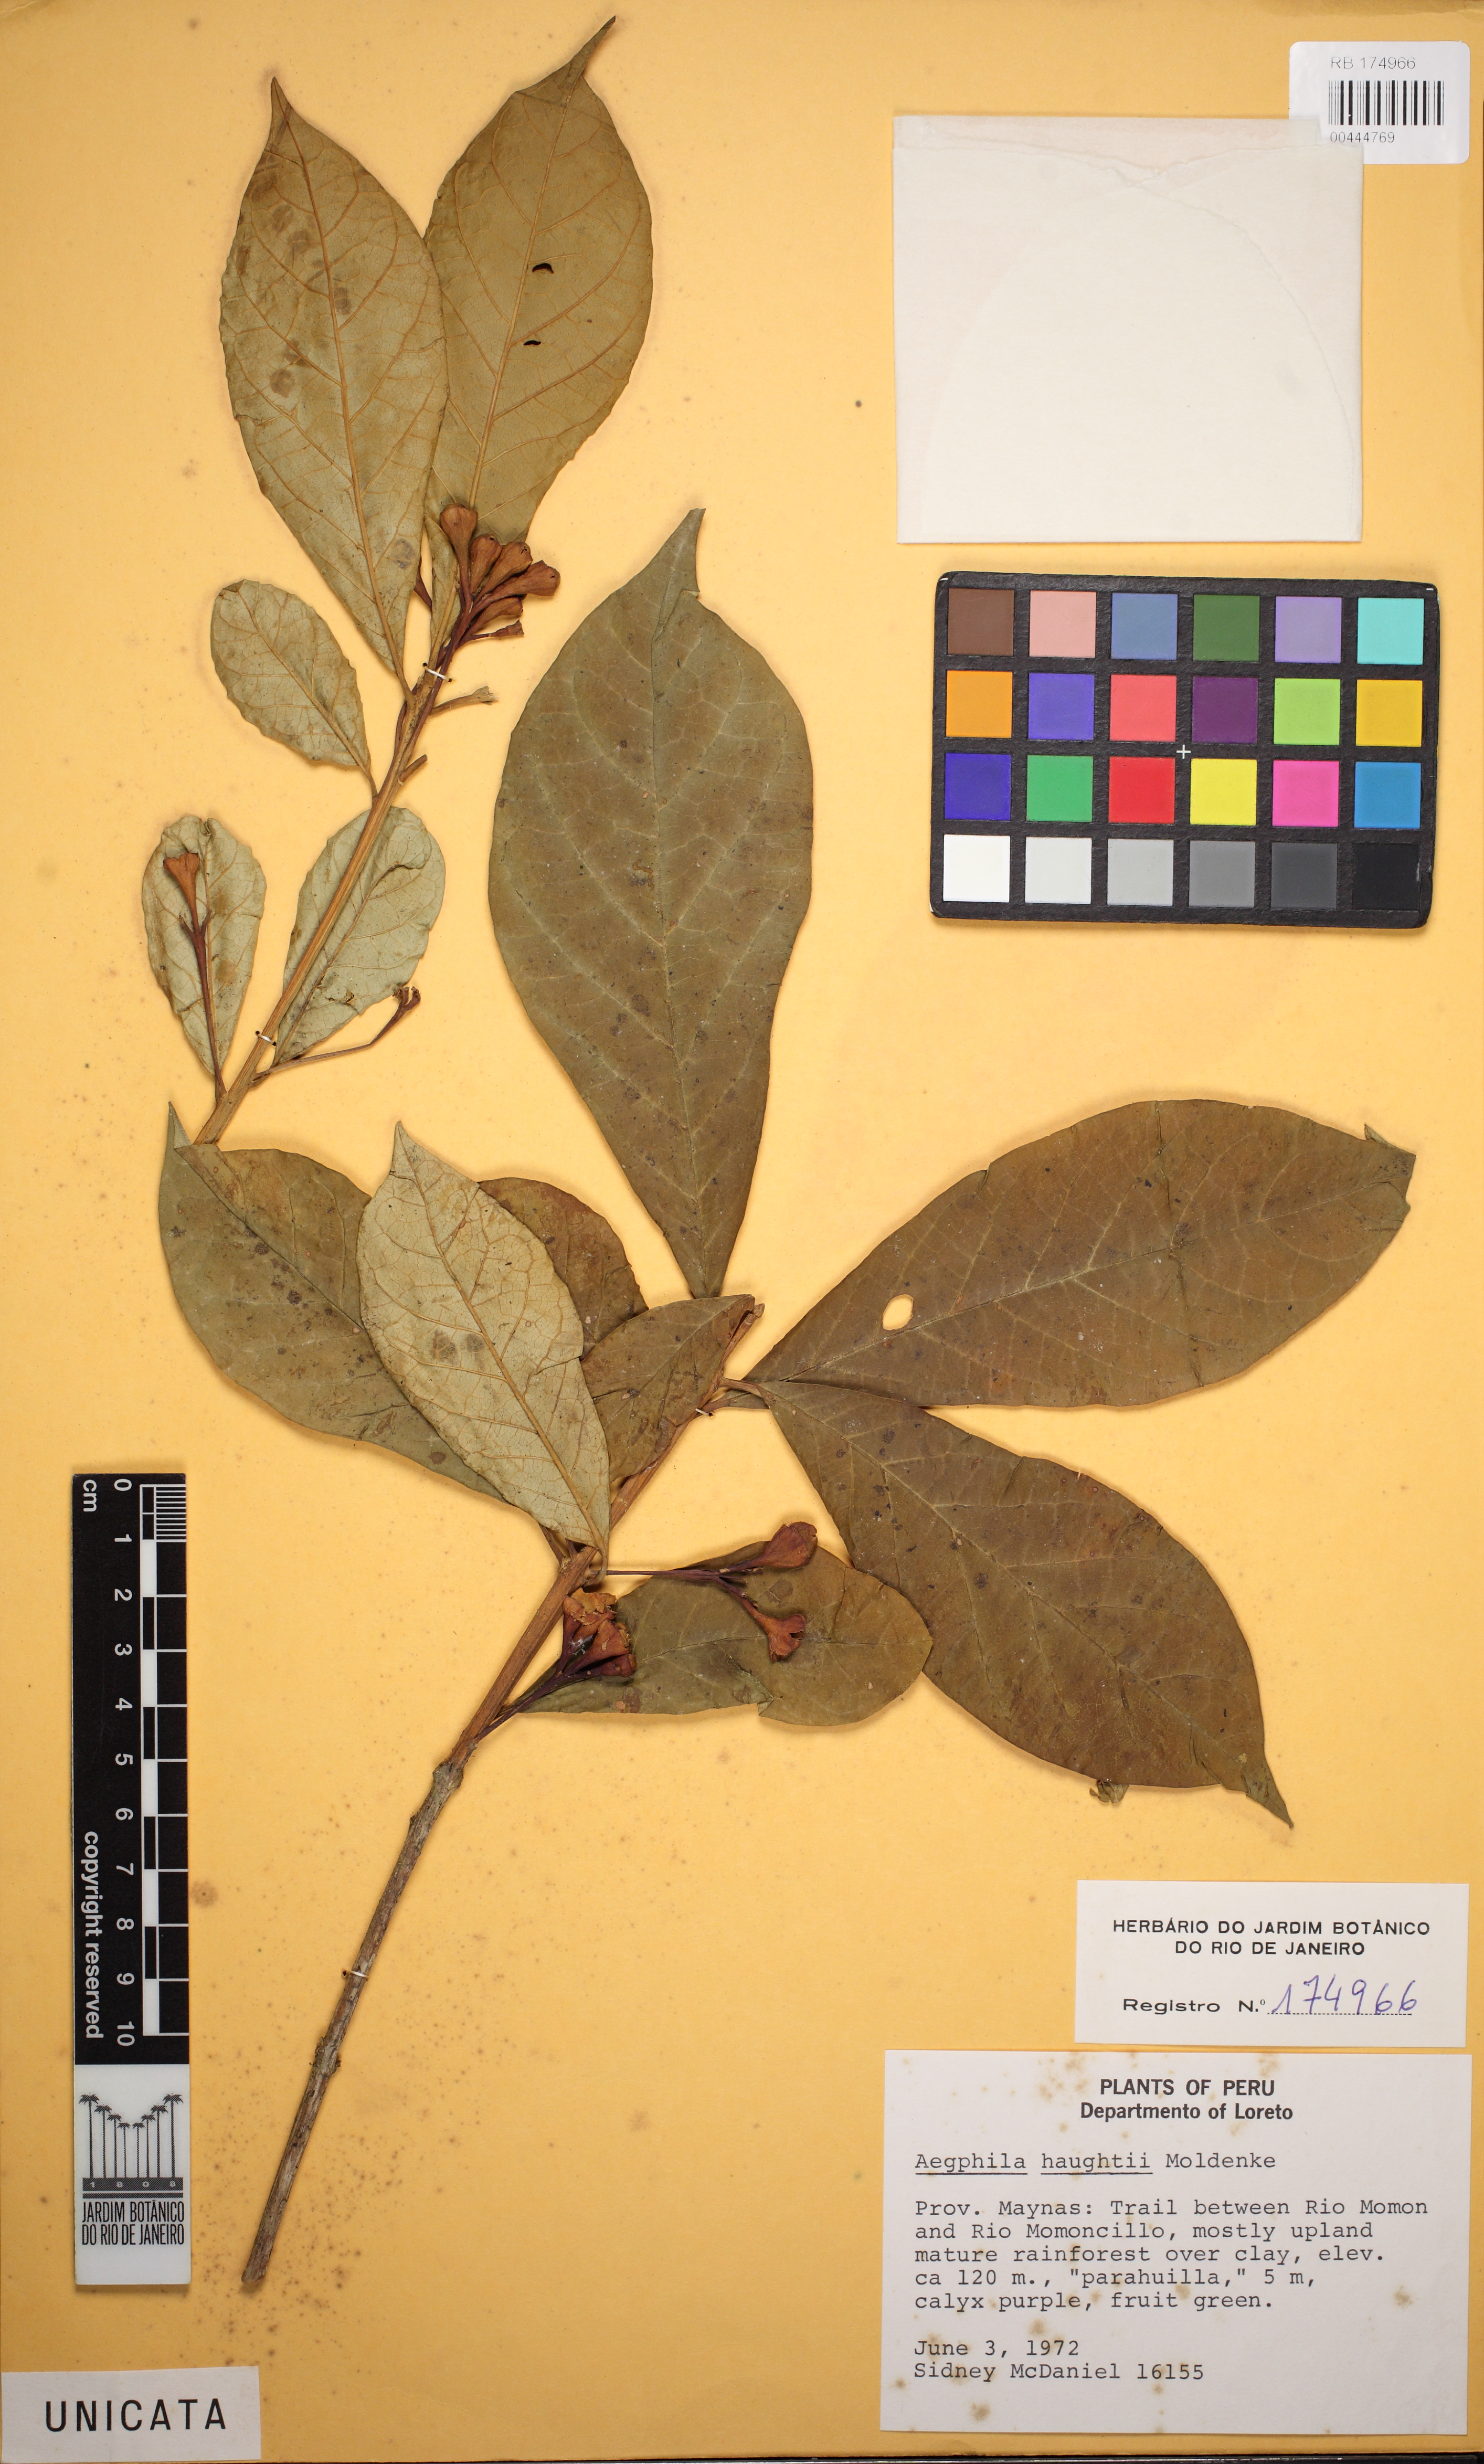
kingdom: Plantae
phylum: Tracheophyta
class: Magnoliopsida
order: Lamiales
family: Lamiaceae
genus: Aegiphila
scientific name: Aegiphila ulei
